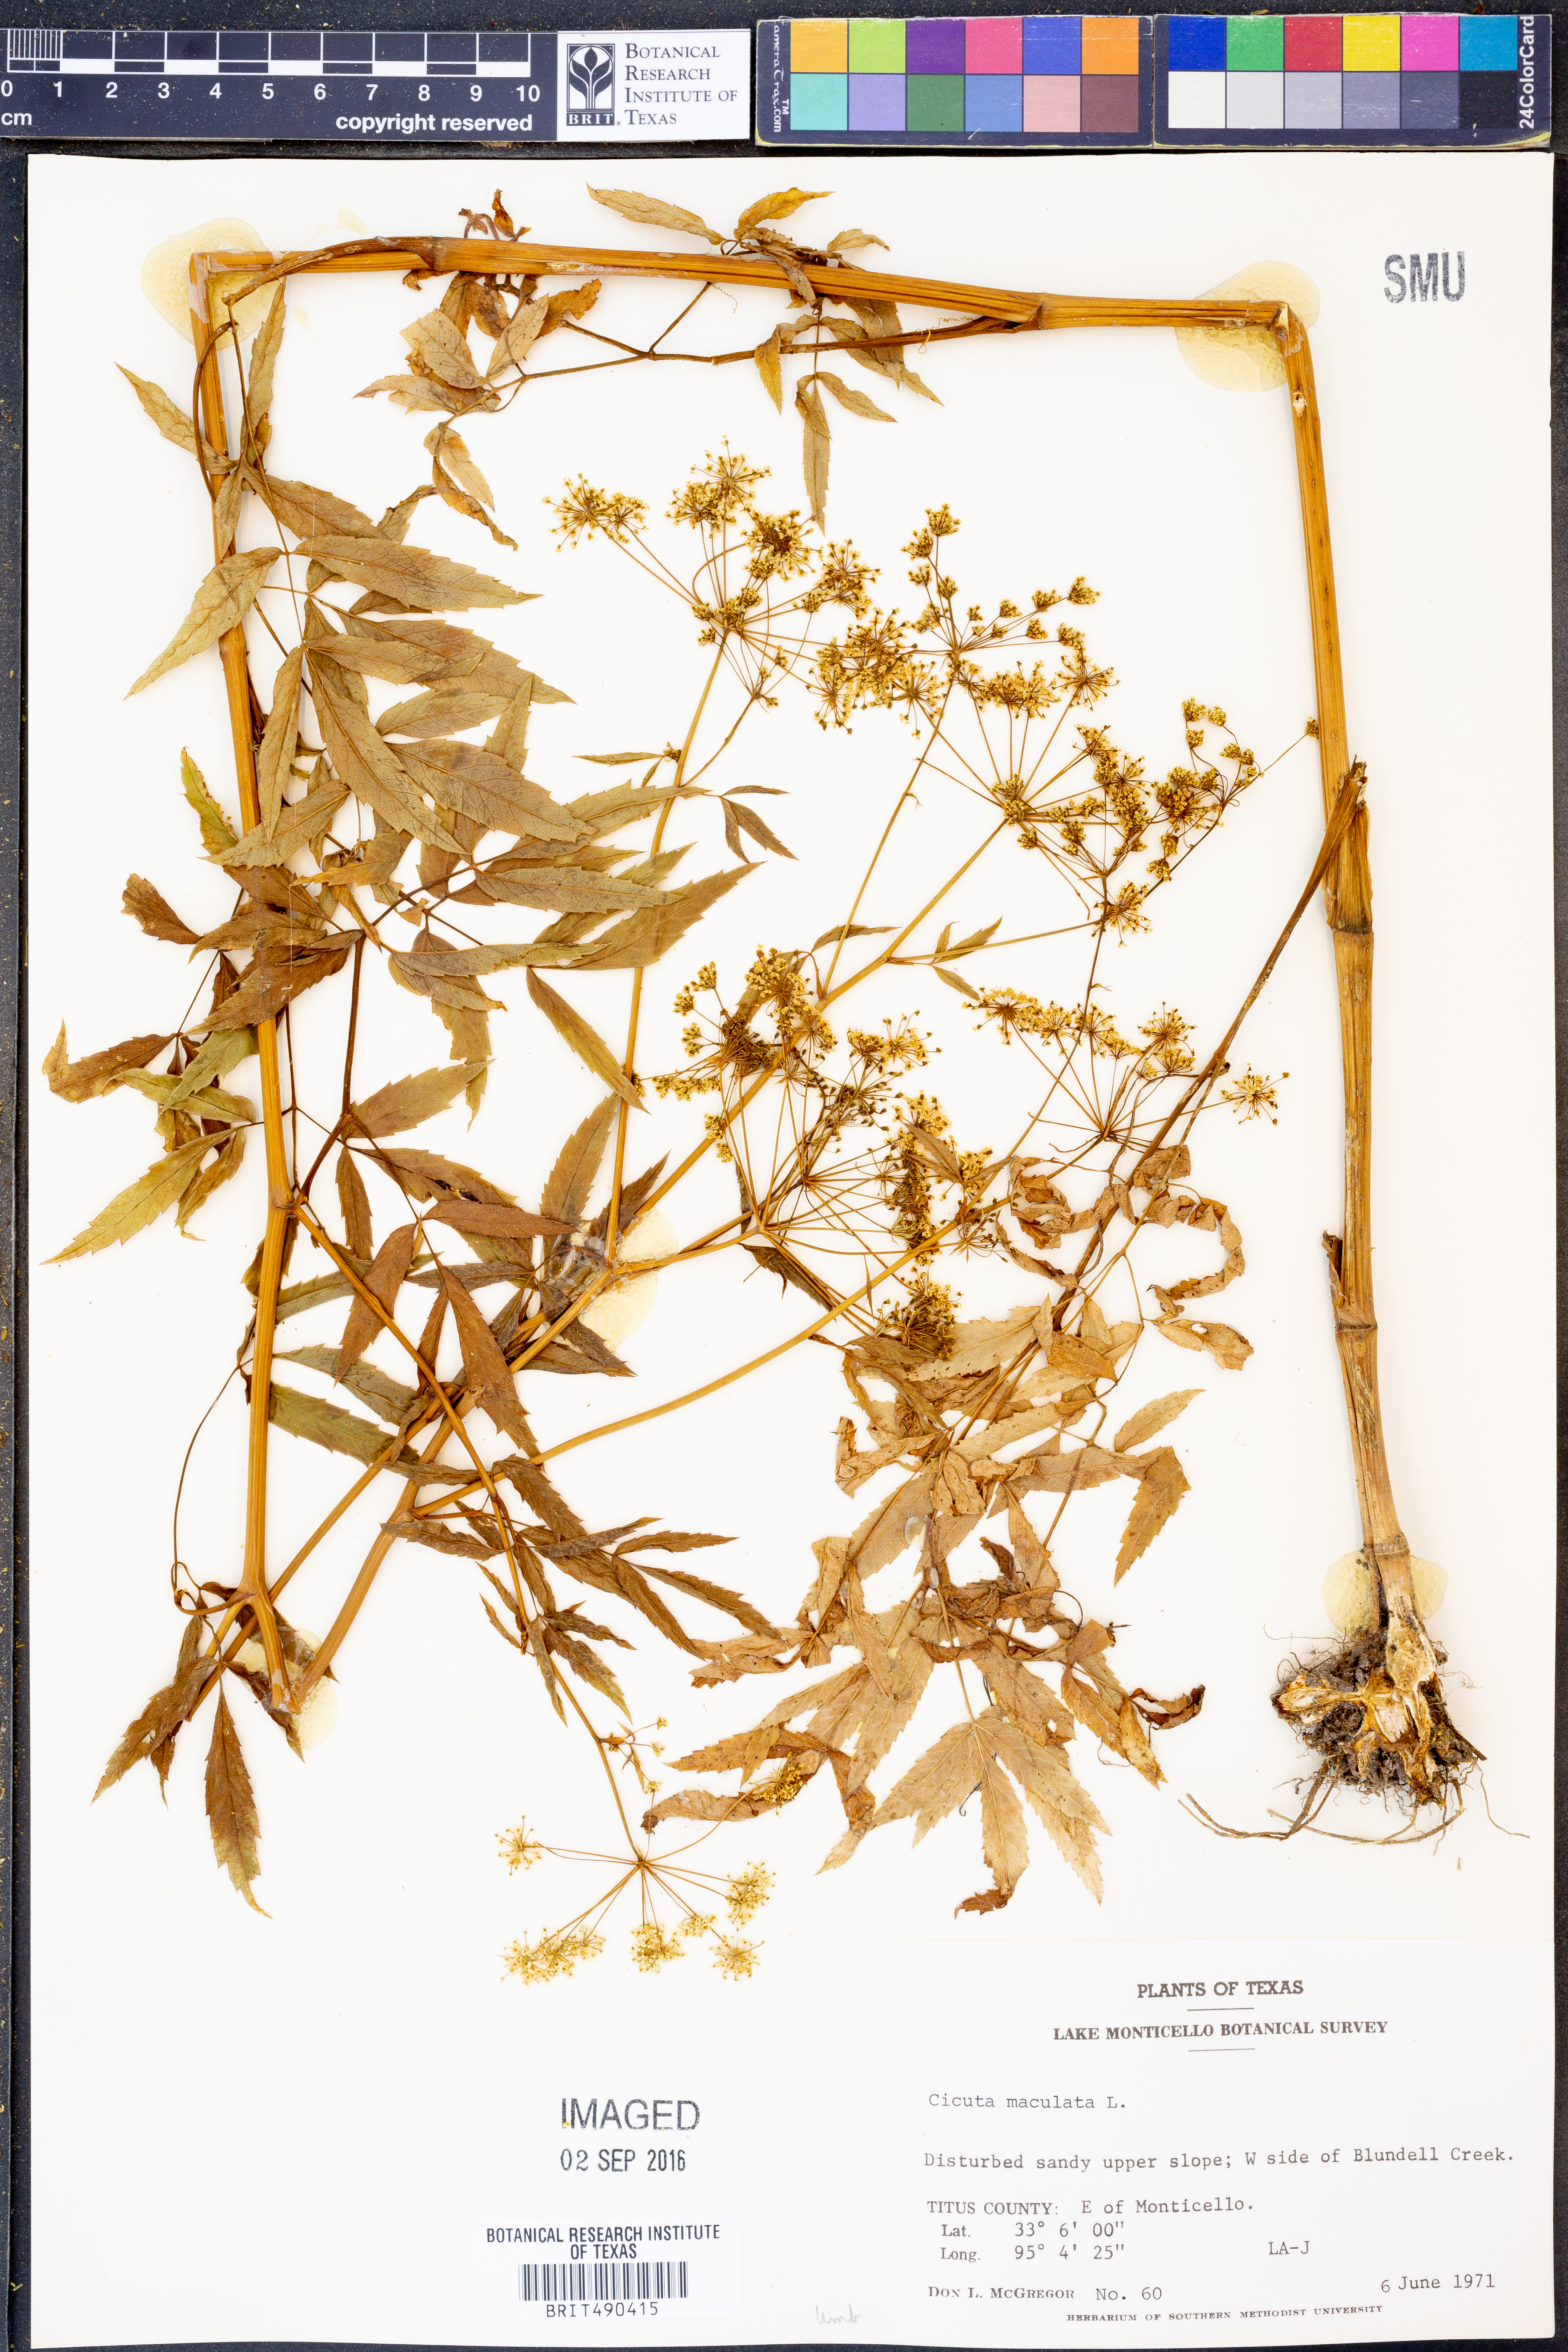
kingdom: Plantae
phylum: Tracheophyta
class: Magnoliopsida
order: Apiales
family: Apiaceae
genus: Cicuta
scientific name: Cicuta maculata
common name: Spotted cowbane
